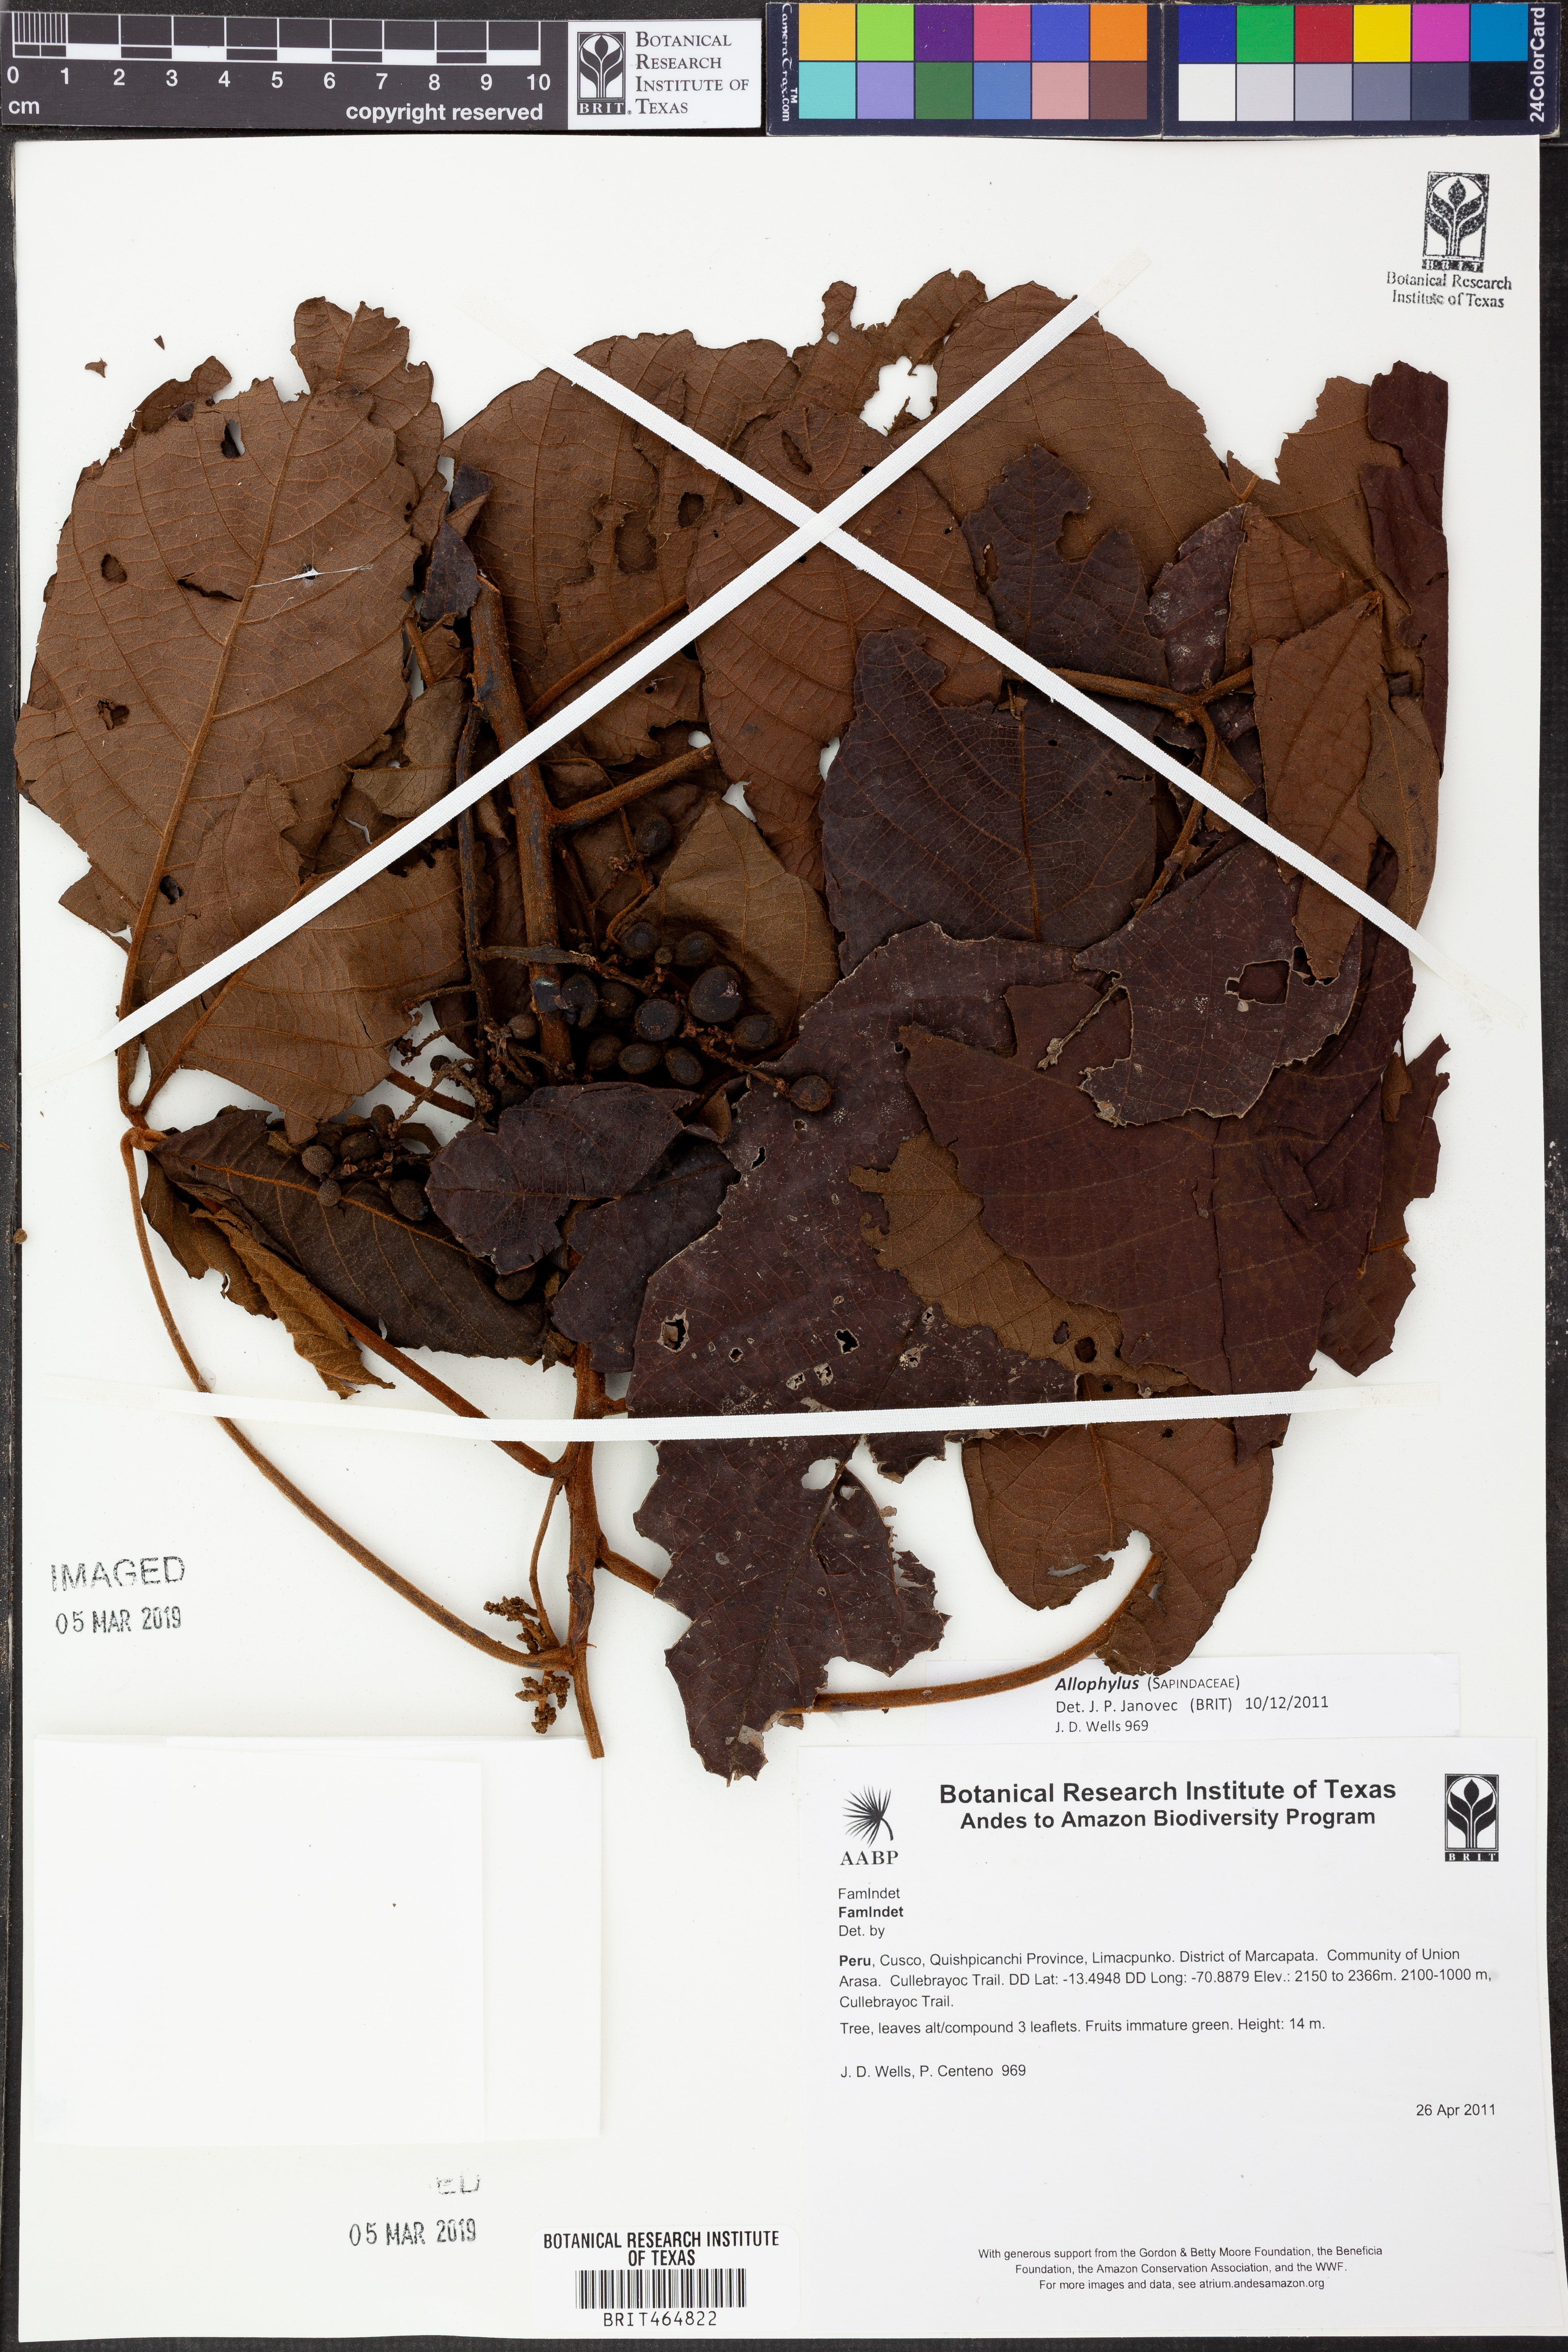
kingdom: Plantae
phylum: Tracheophyta
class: Magnoliopsida
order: Sapindales
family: Sapindaceae
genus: Allophylus
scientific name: Allophylus
